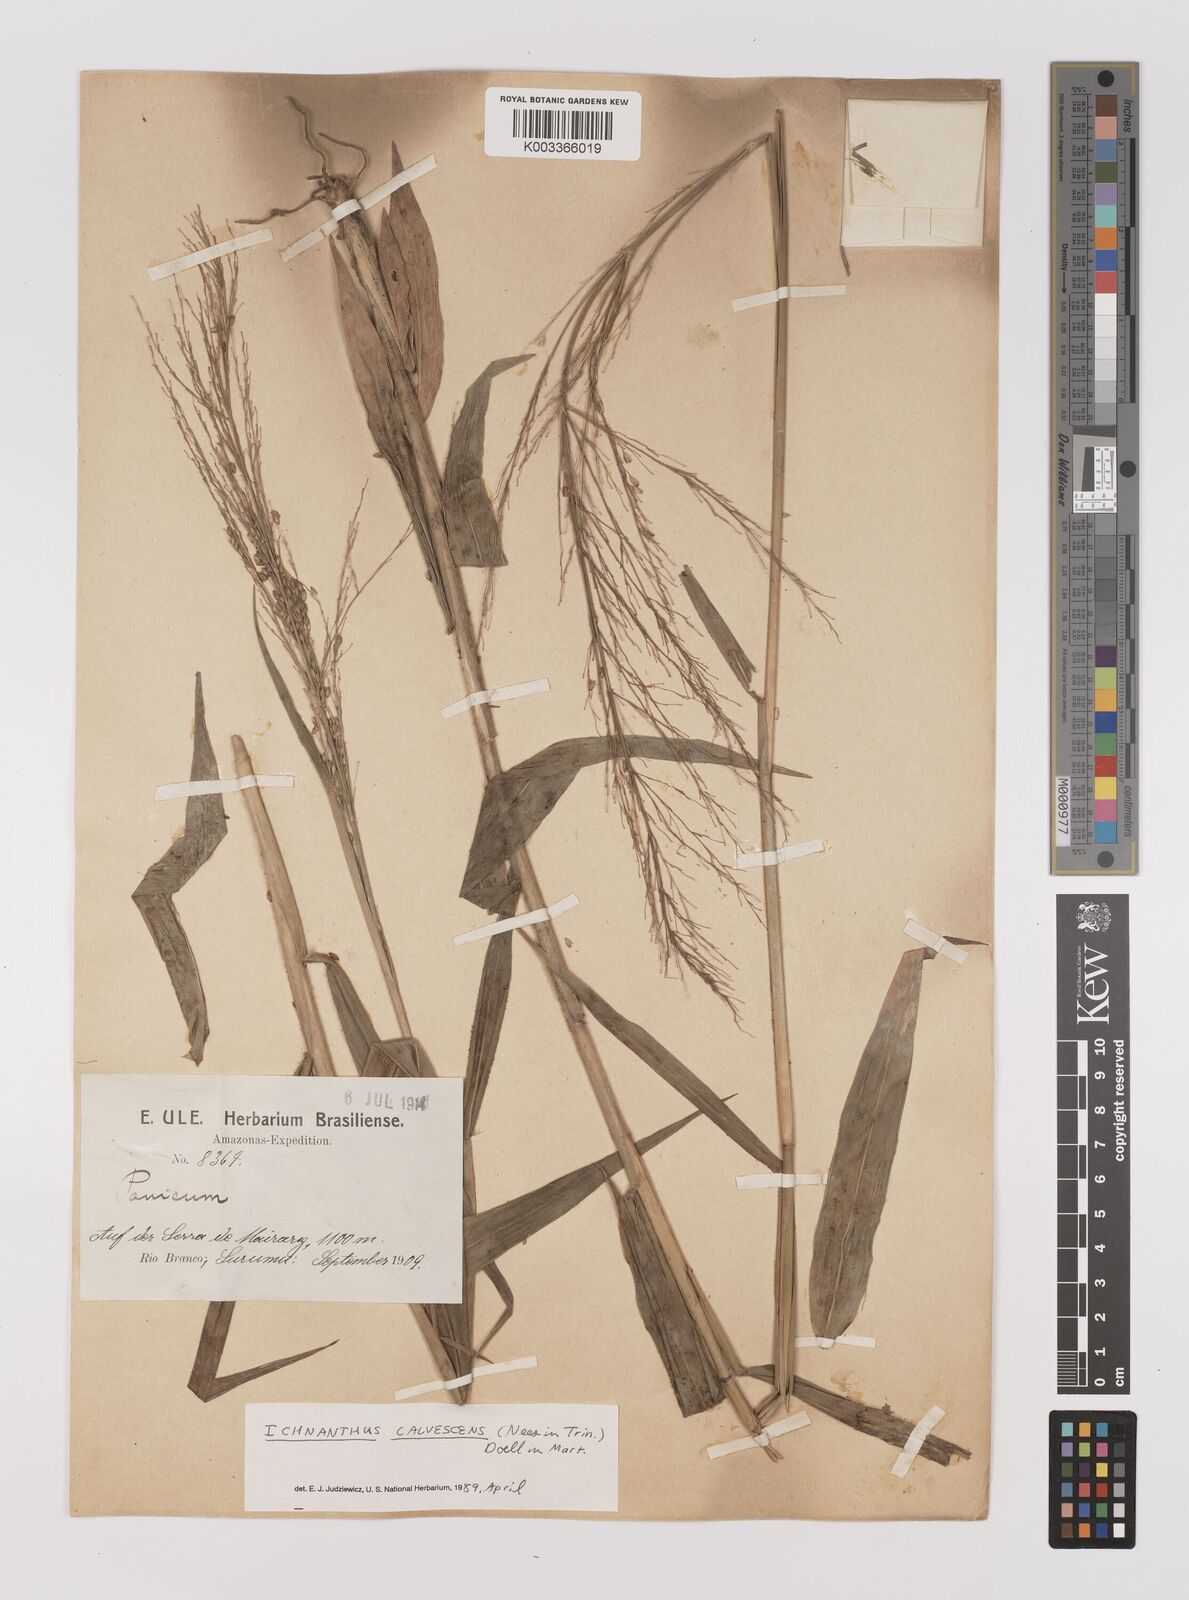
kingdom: Plantae
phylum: Tracheophyta
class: Liliopsida
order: Poales
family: Poaceae
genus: Ichnanthus
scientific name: Ichnanthus calvescens
